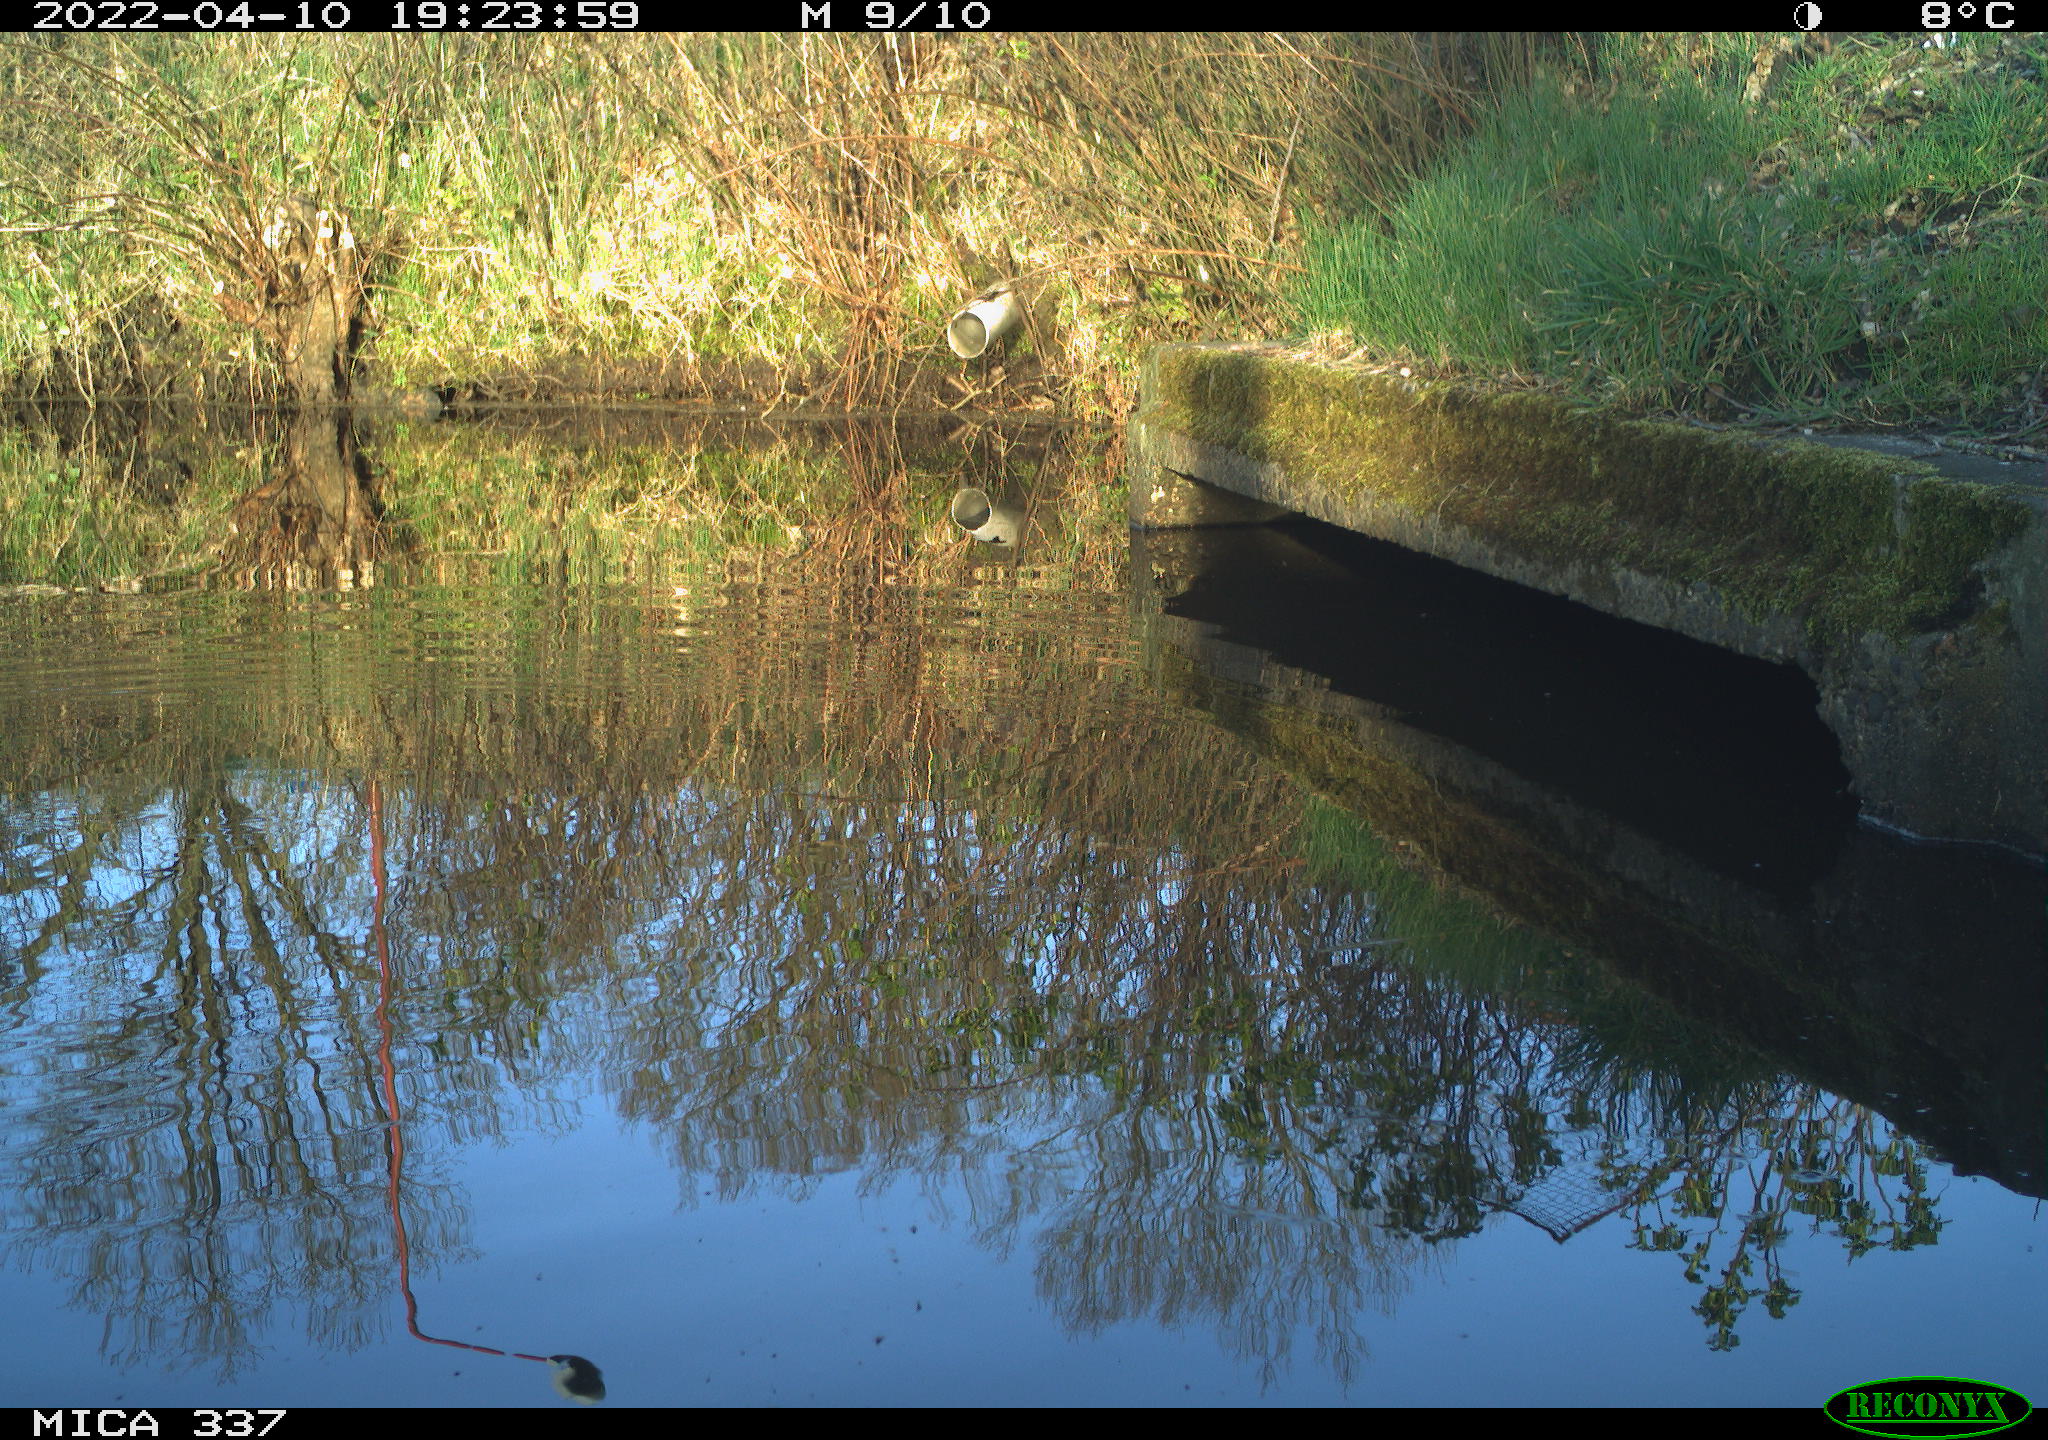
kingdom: Animalia
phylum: Chordata
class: Aves
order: Anseriformes
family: Anatidae
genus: Anas
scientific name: Anas platyrhynchos
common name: Mallard
